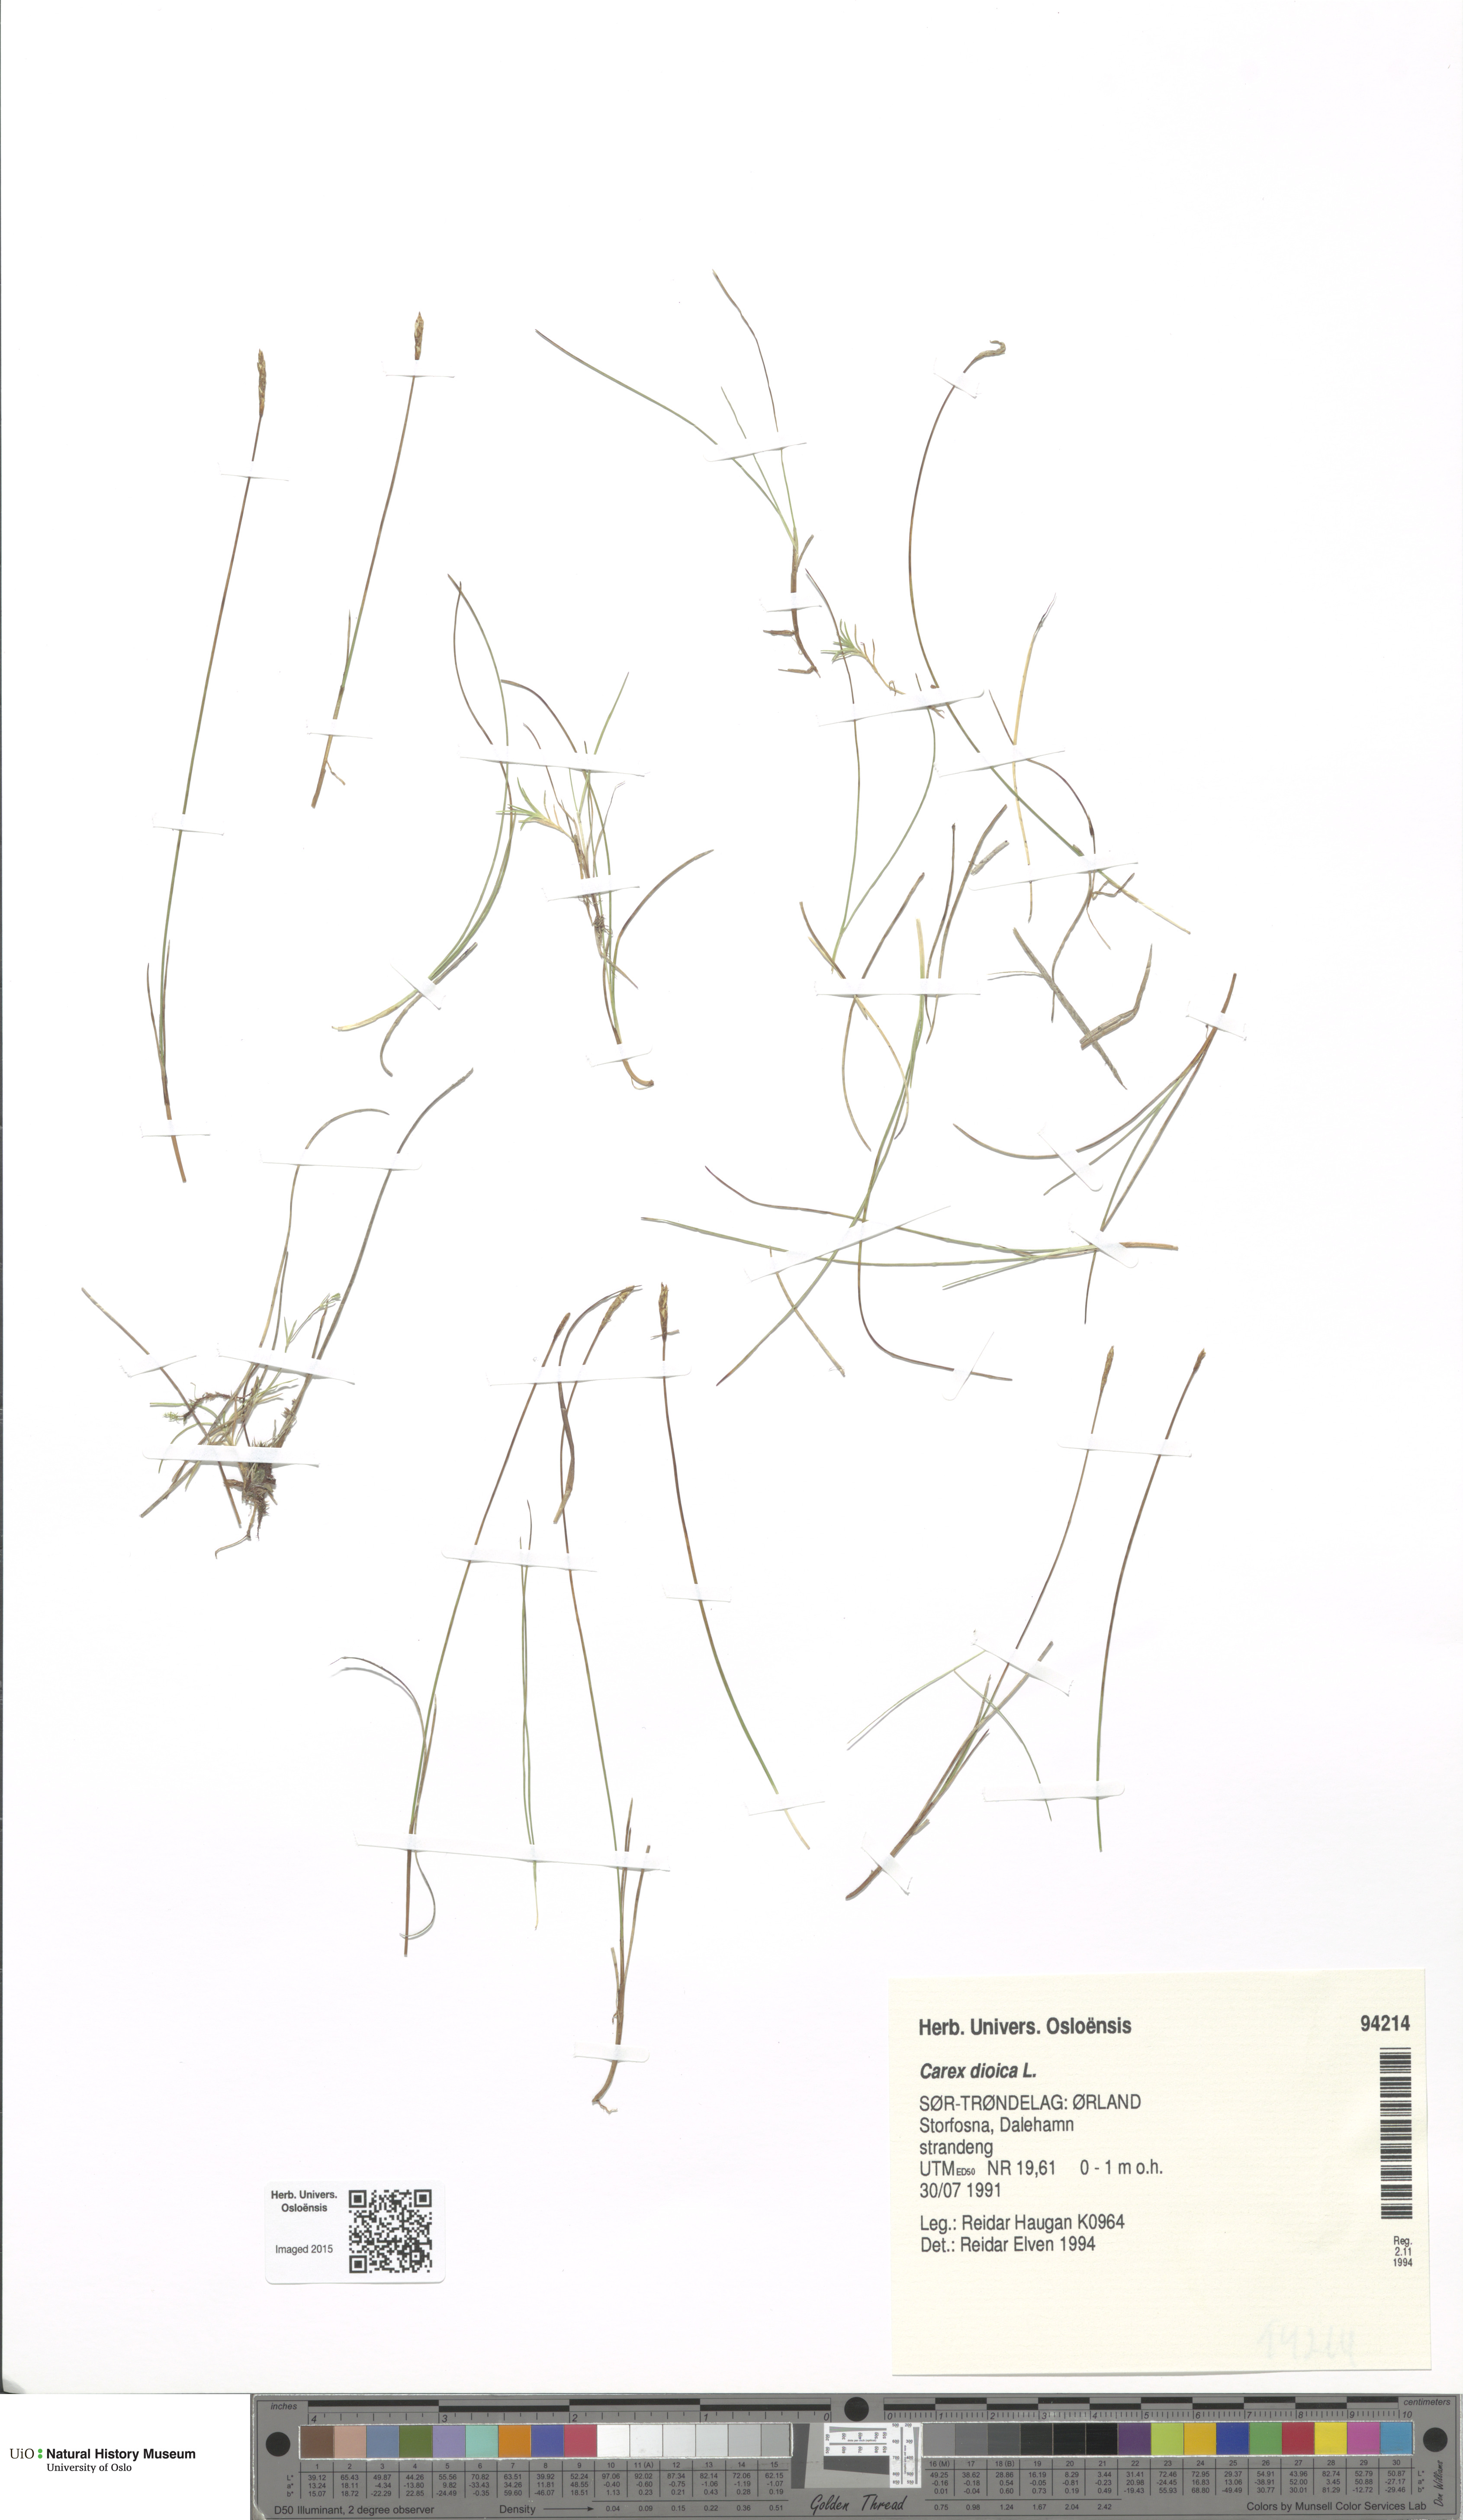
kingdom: Plantae
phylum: Tracheophyta
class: Liliopsida
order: Poales
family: Cyperaceae
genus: Carex
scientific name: Carex dioica
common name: Dioecious sedge
